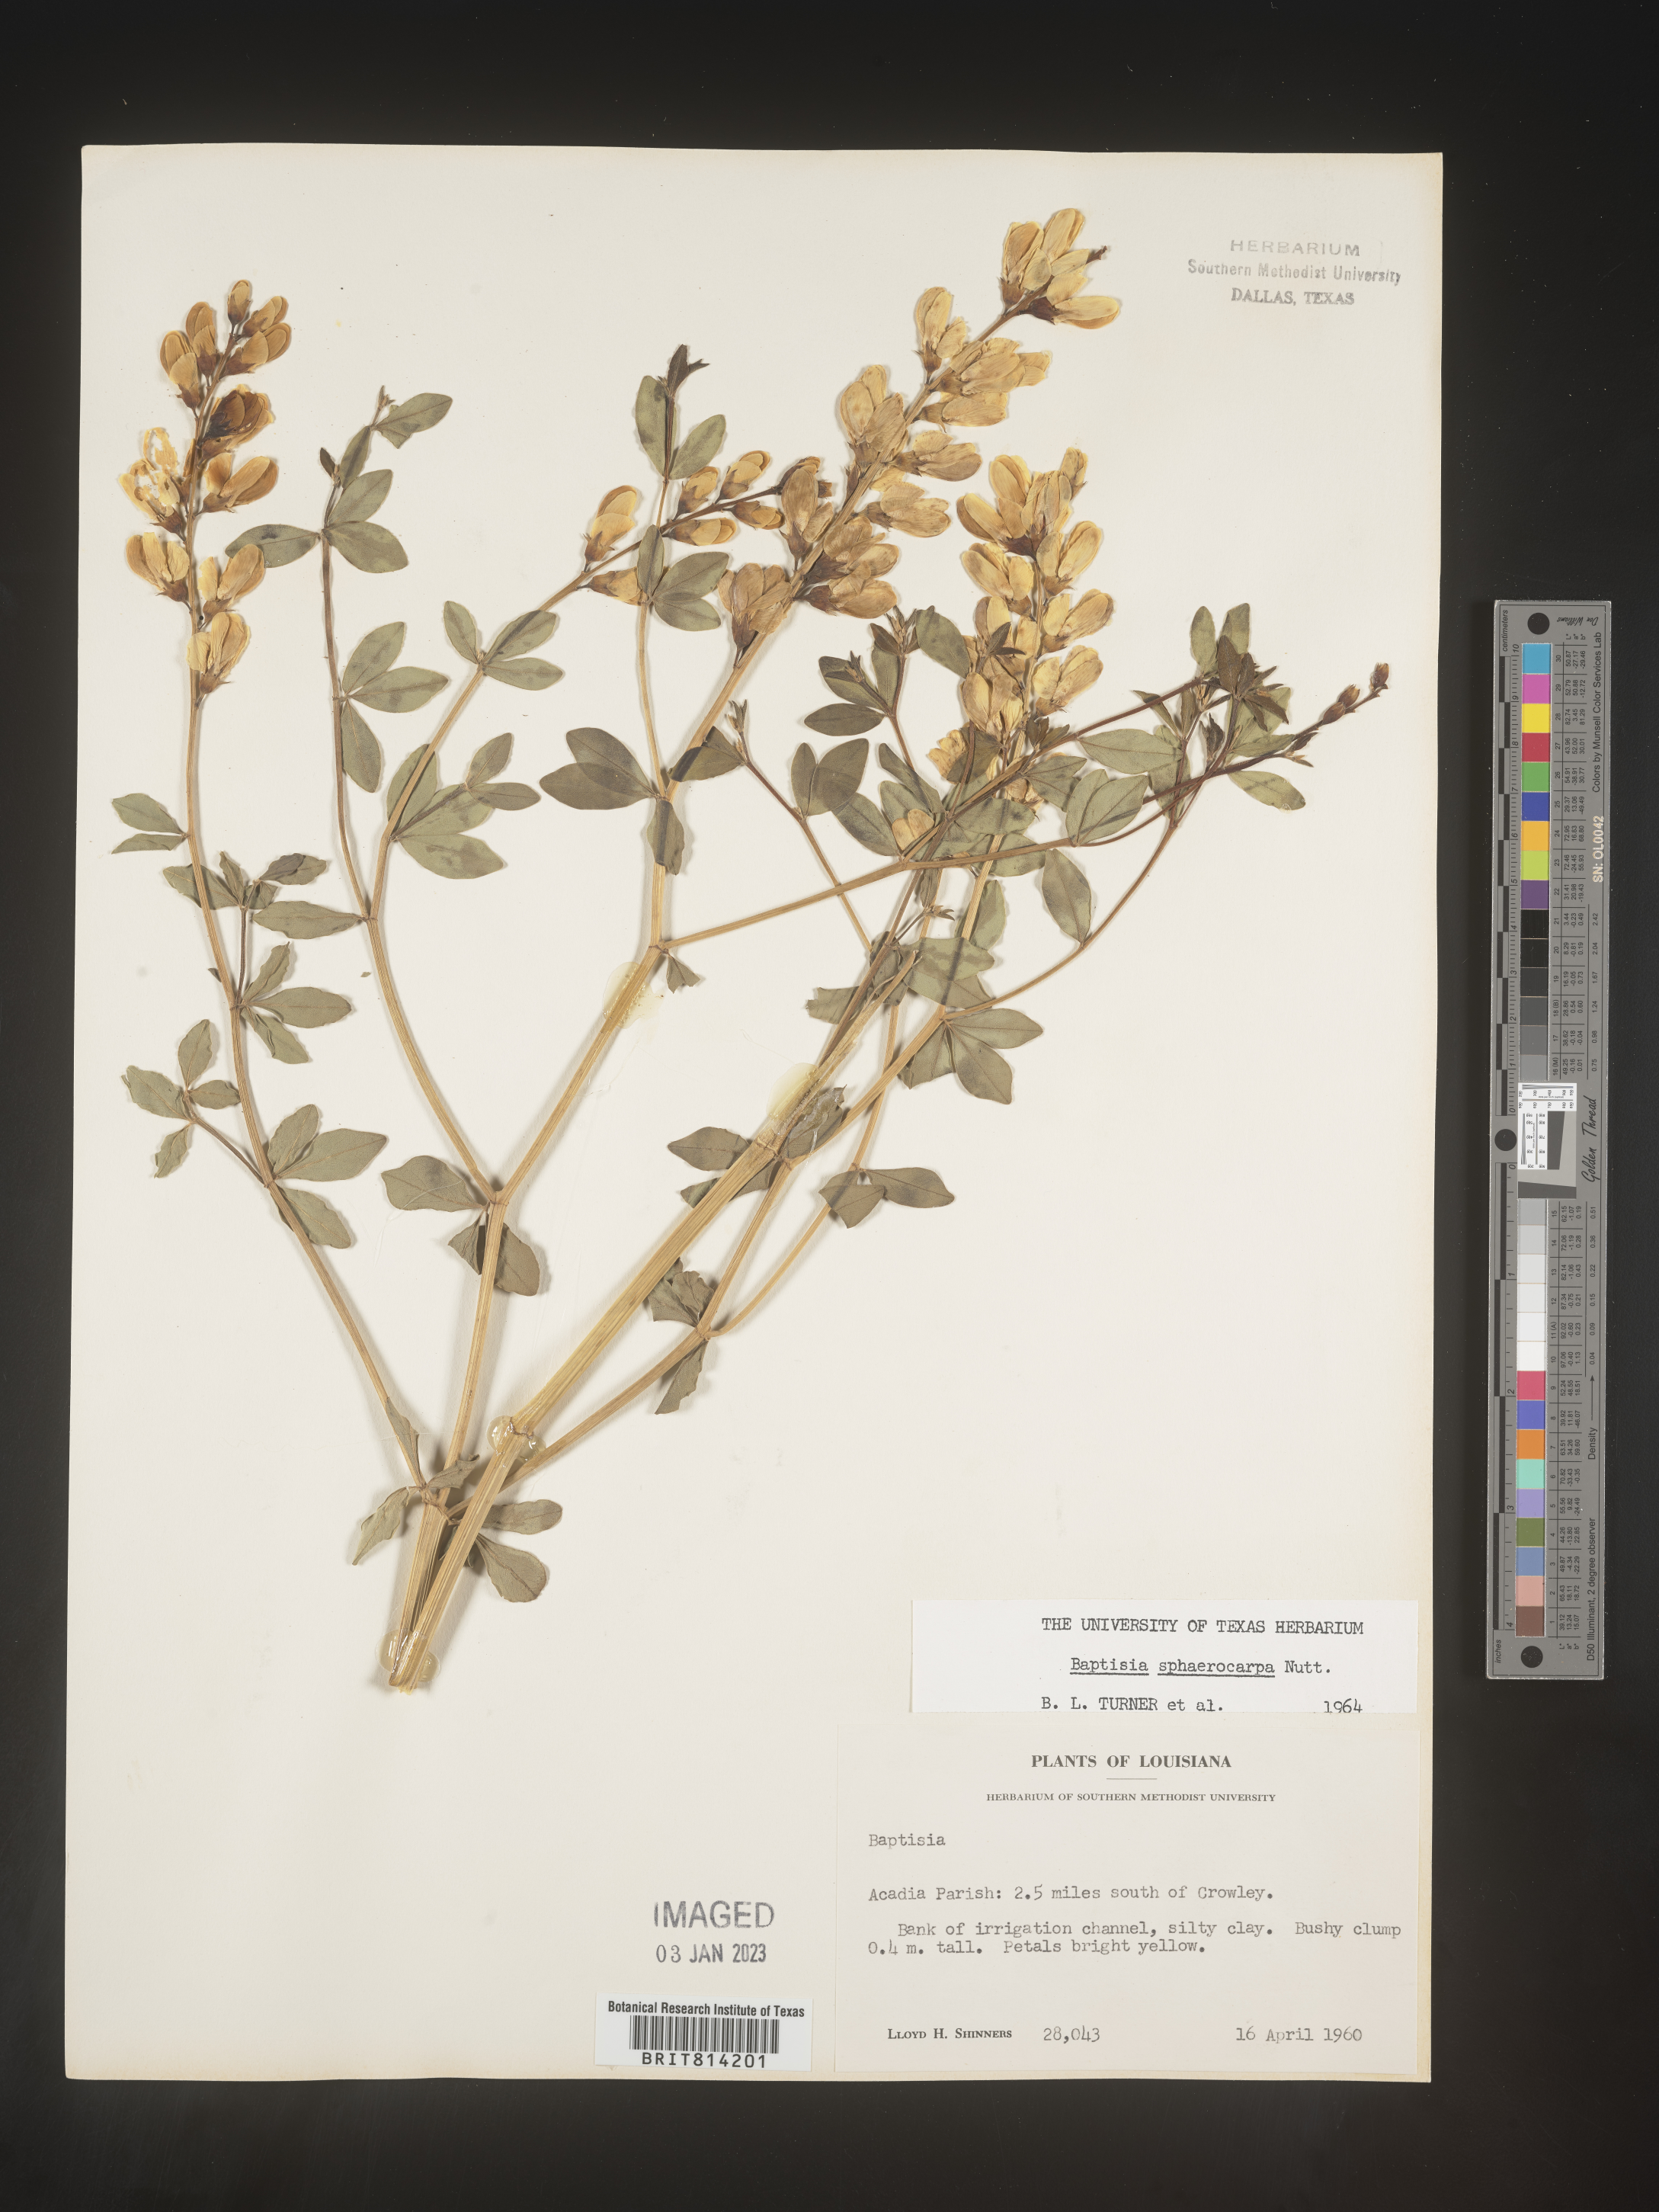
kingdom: Plantae
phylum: Tracheophyta
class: Magnoliopsida
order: Fabales
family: Fabaceae
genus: Baptisia
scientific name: Baptisia sphaerocarpa
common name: Round wild indigo
